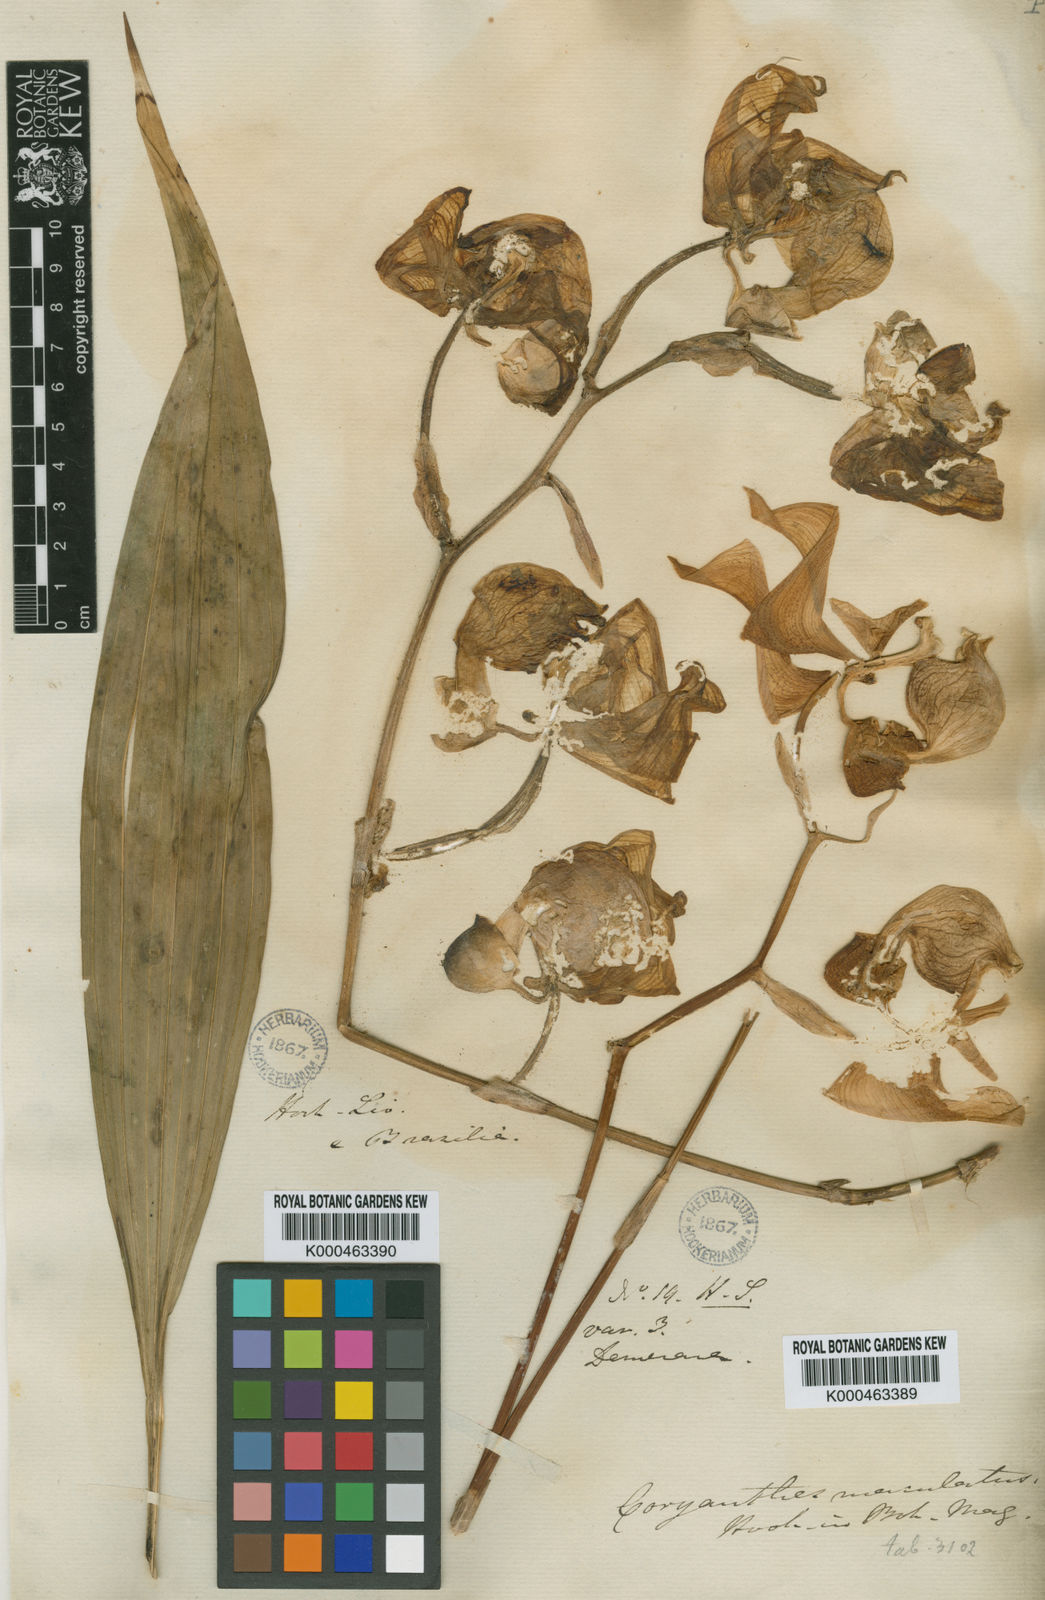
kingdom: Plantae
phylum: Tracheophyta
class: Liliopsida
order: Asparagales
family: Orchidaceae
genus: Coryanthes
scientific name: Coryanthes maculata
